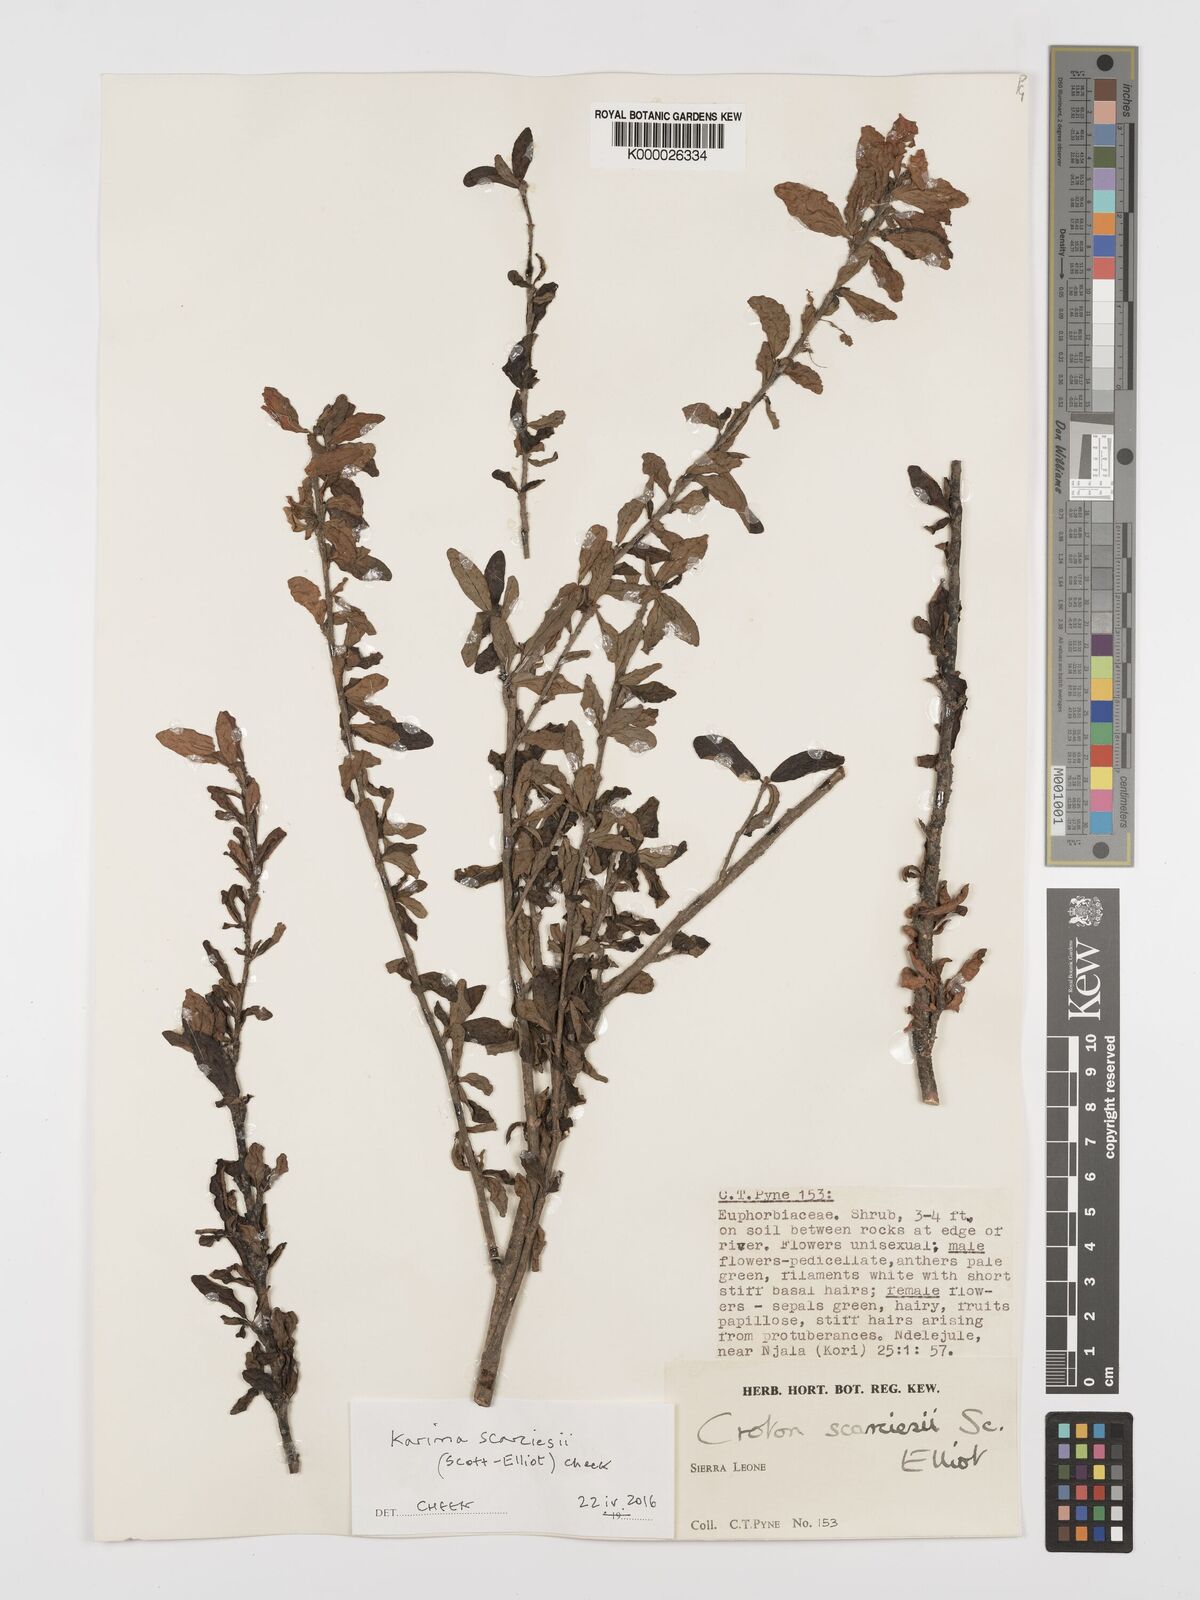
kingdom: Plantae
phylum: Tracheophyta
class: Magnoliopsida
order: Gentianales
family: Rubiaceae
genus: Spermacoce
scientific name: Spermacoce intricans
